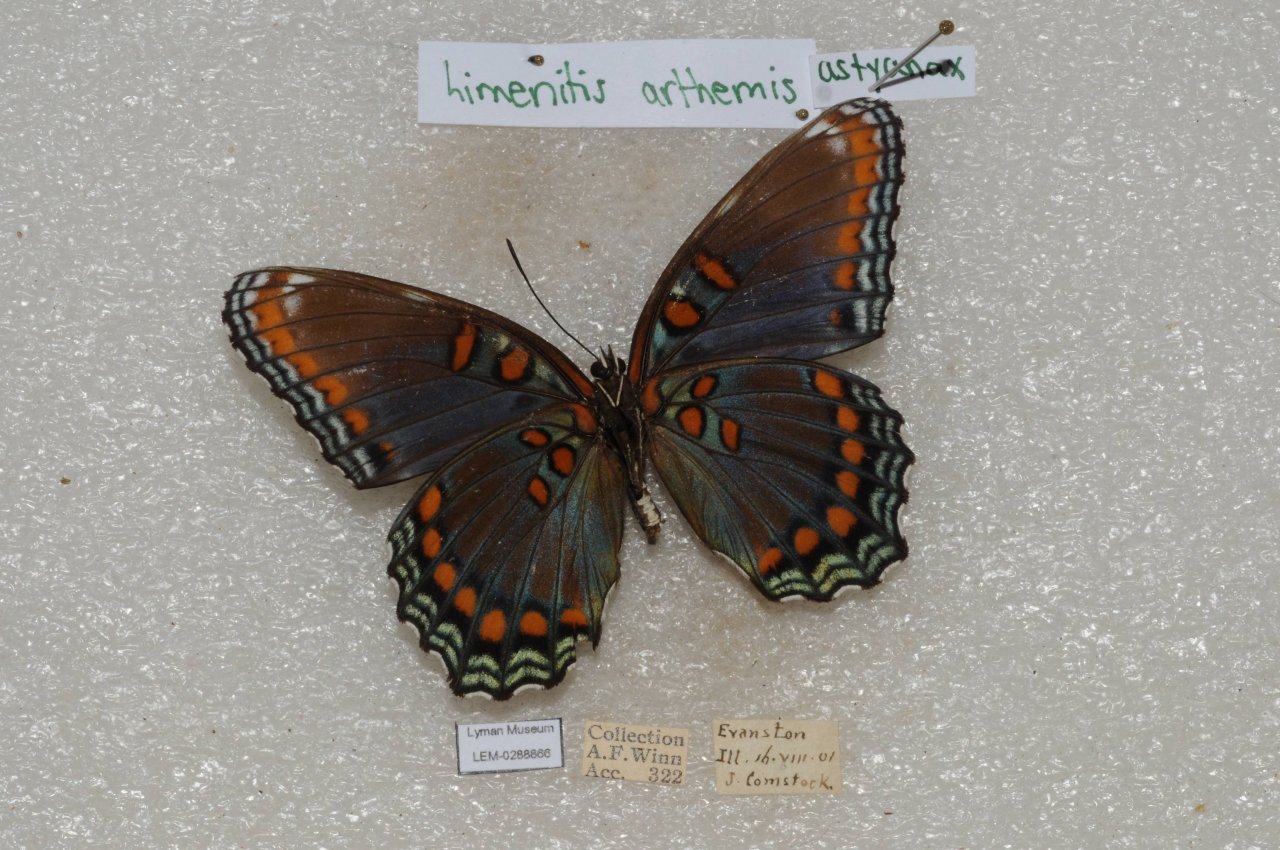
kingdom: Animalia
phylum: Arthropoda
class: Insecta
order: Lepidoptera
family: Nymphalidae
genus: Limenitis
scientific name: Limenitis astyanax
